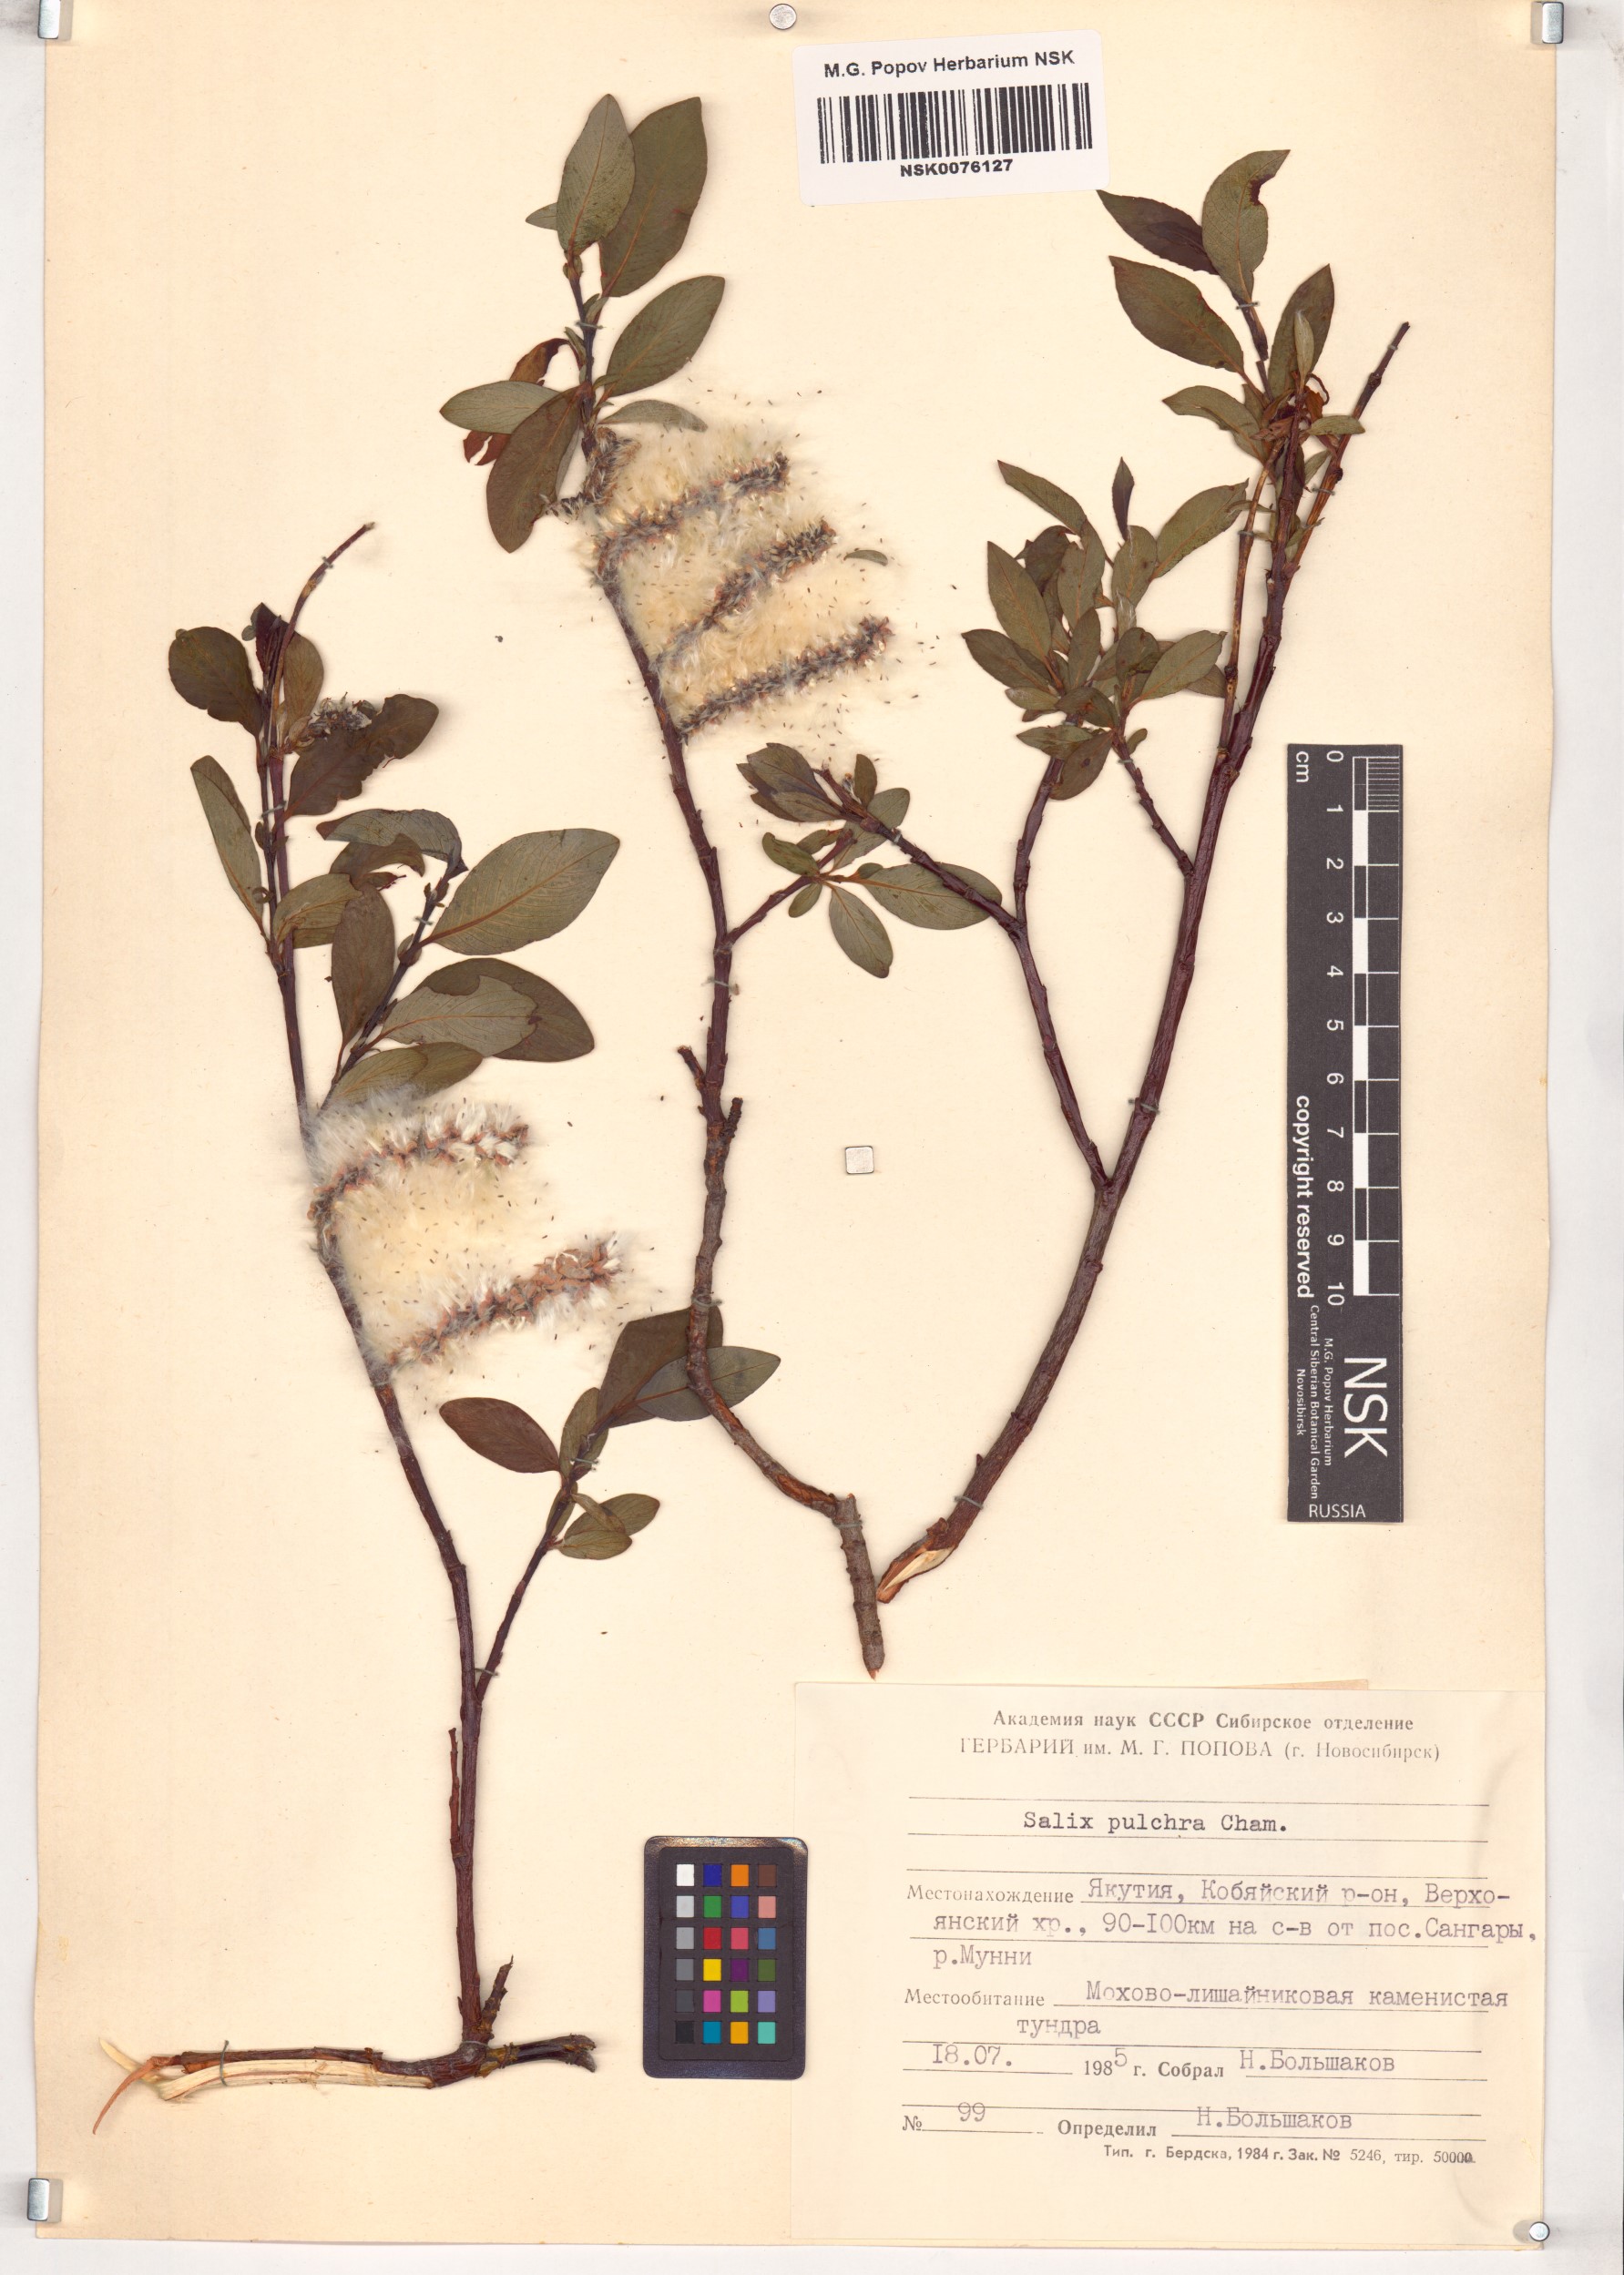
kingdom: Plantae
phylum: Tracheophyta
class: Magnoliopsida
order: Malpighiales
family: Salicaceae
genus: Salix
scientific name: Salix pulchra
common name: Diamond-leaved willow
